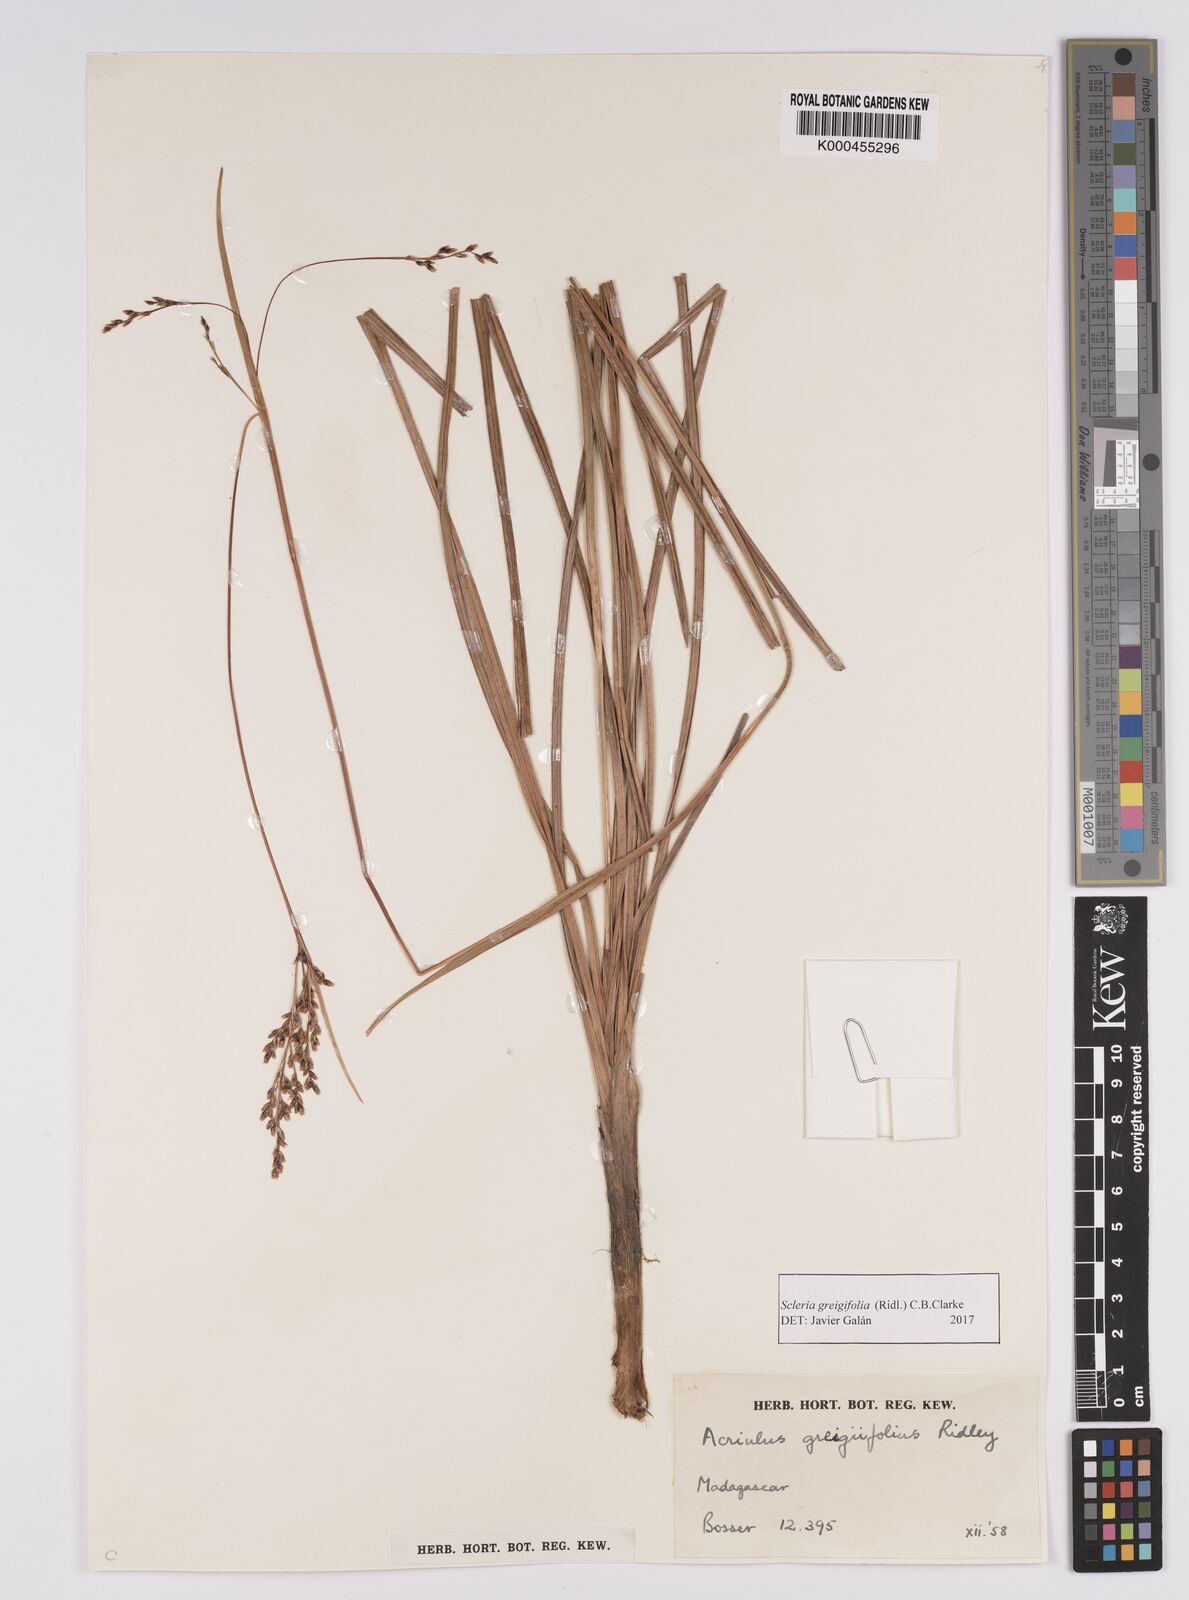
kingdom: Plantae
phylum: Tracheophyta
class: Liliopsida
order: Poales
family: Cyperaceae
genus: Scleria
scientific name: Scleria greigiifolia
